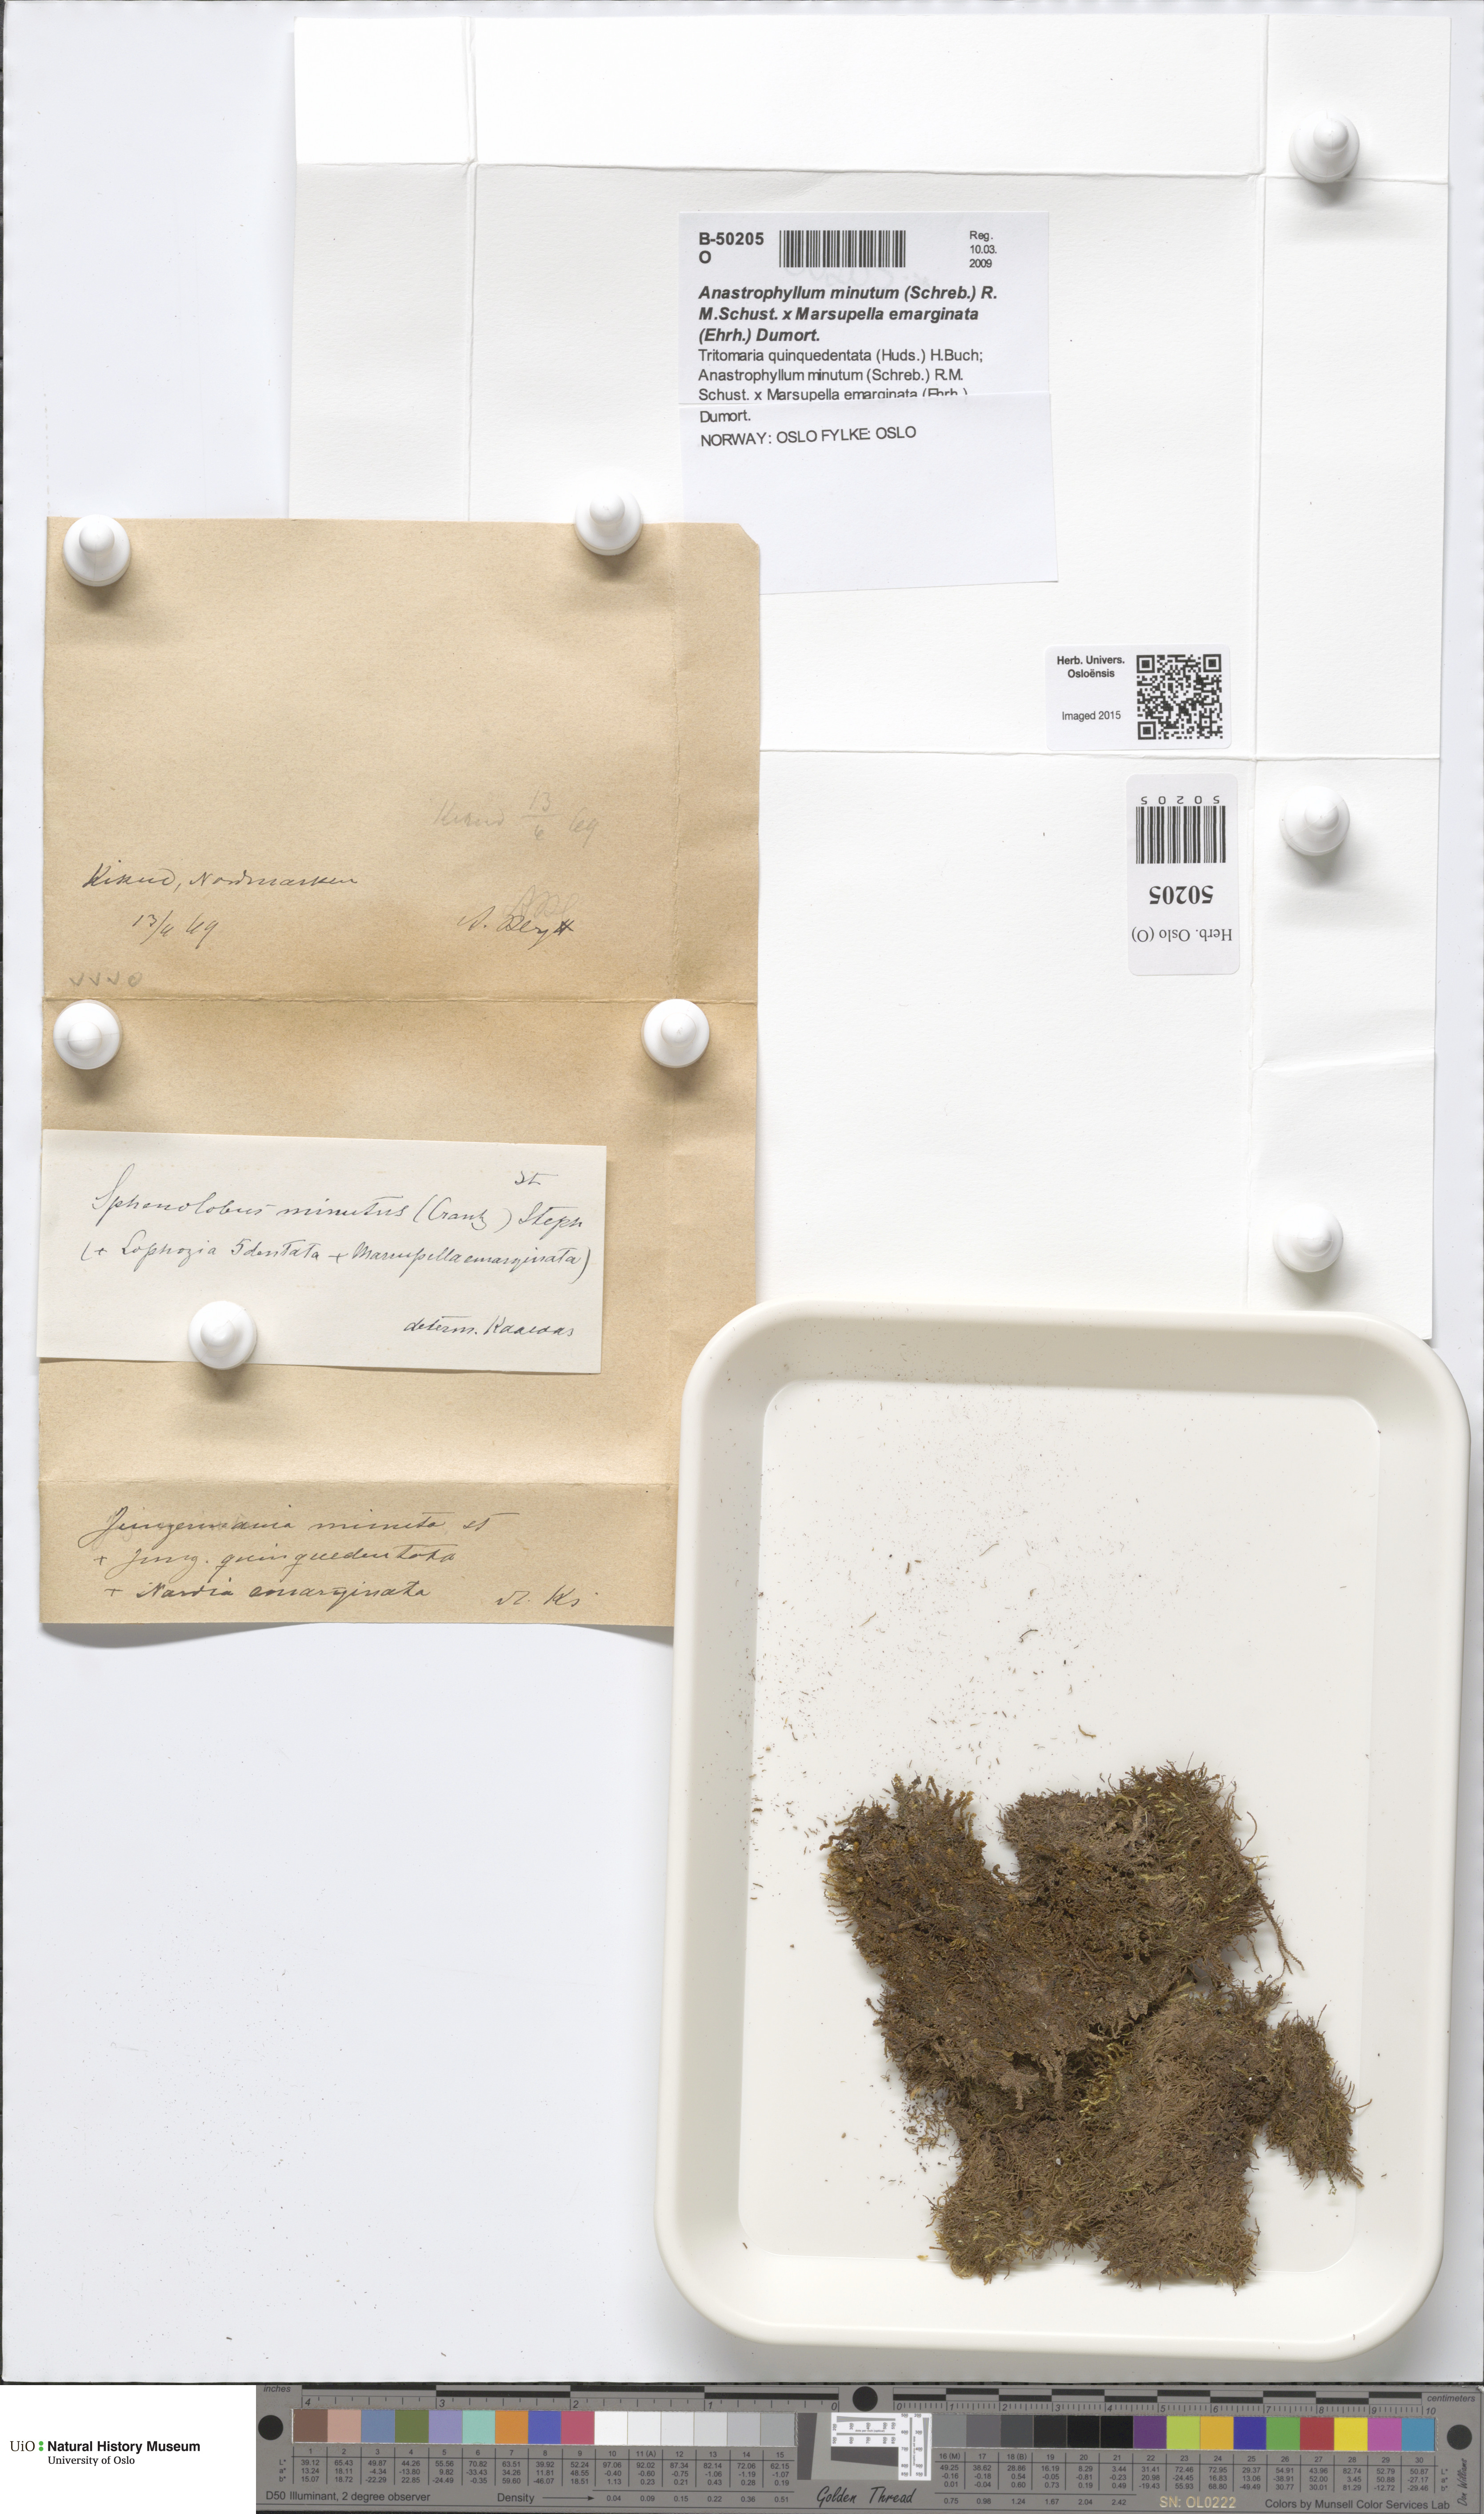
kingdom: Plantae
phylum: Marchantiophyta
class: Jungermanniopsida
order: Jungermanniales
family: Anastrophyllaceae
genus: Sphenolobus
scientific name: Sphenolobus minutus
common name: Comb notchwort
